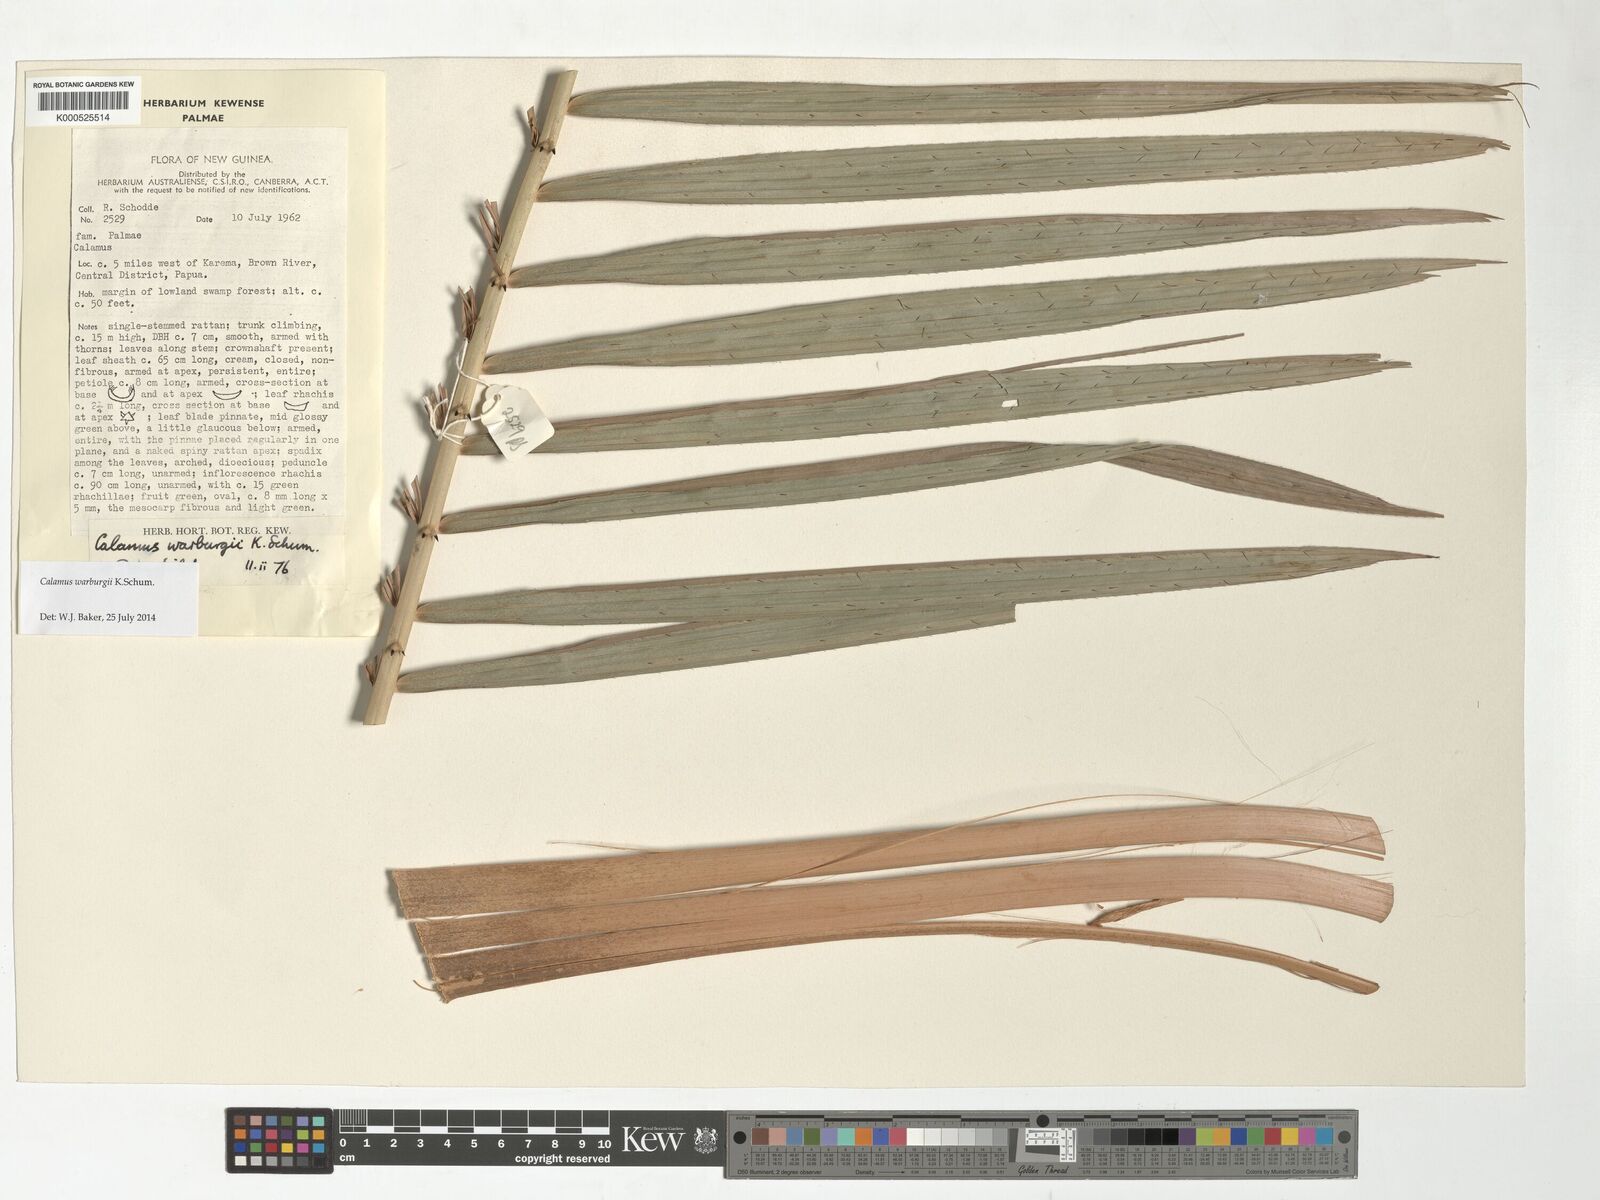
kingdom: Plantae
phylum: Tracheophyta
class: Liliopsida
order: Arecales
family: Arecaceae
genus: Calamus
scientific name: Calamus warburgii
